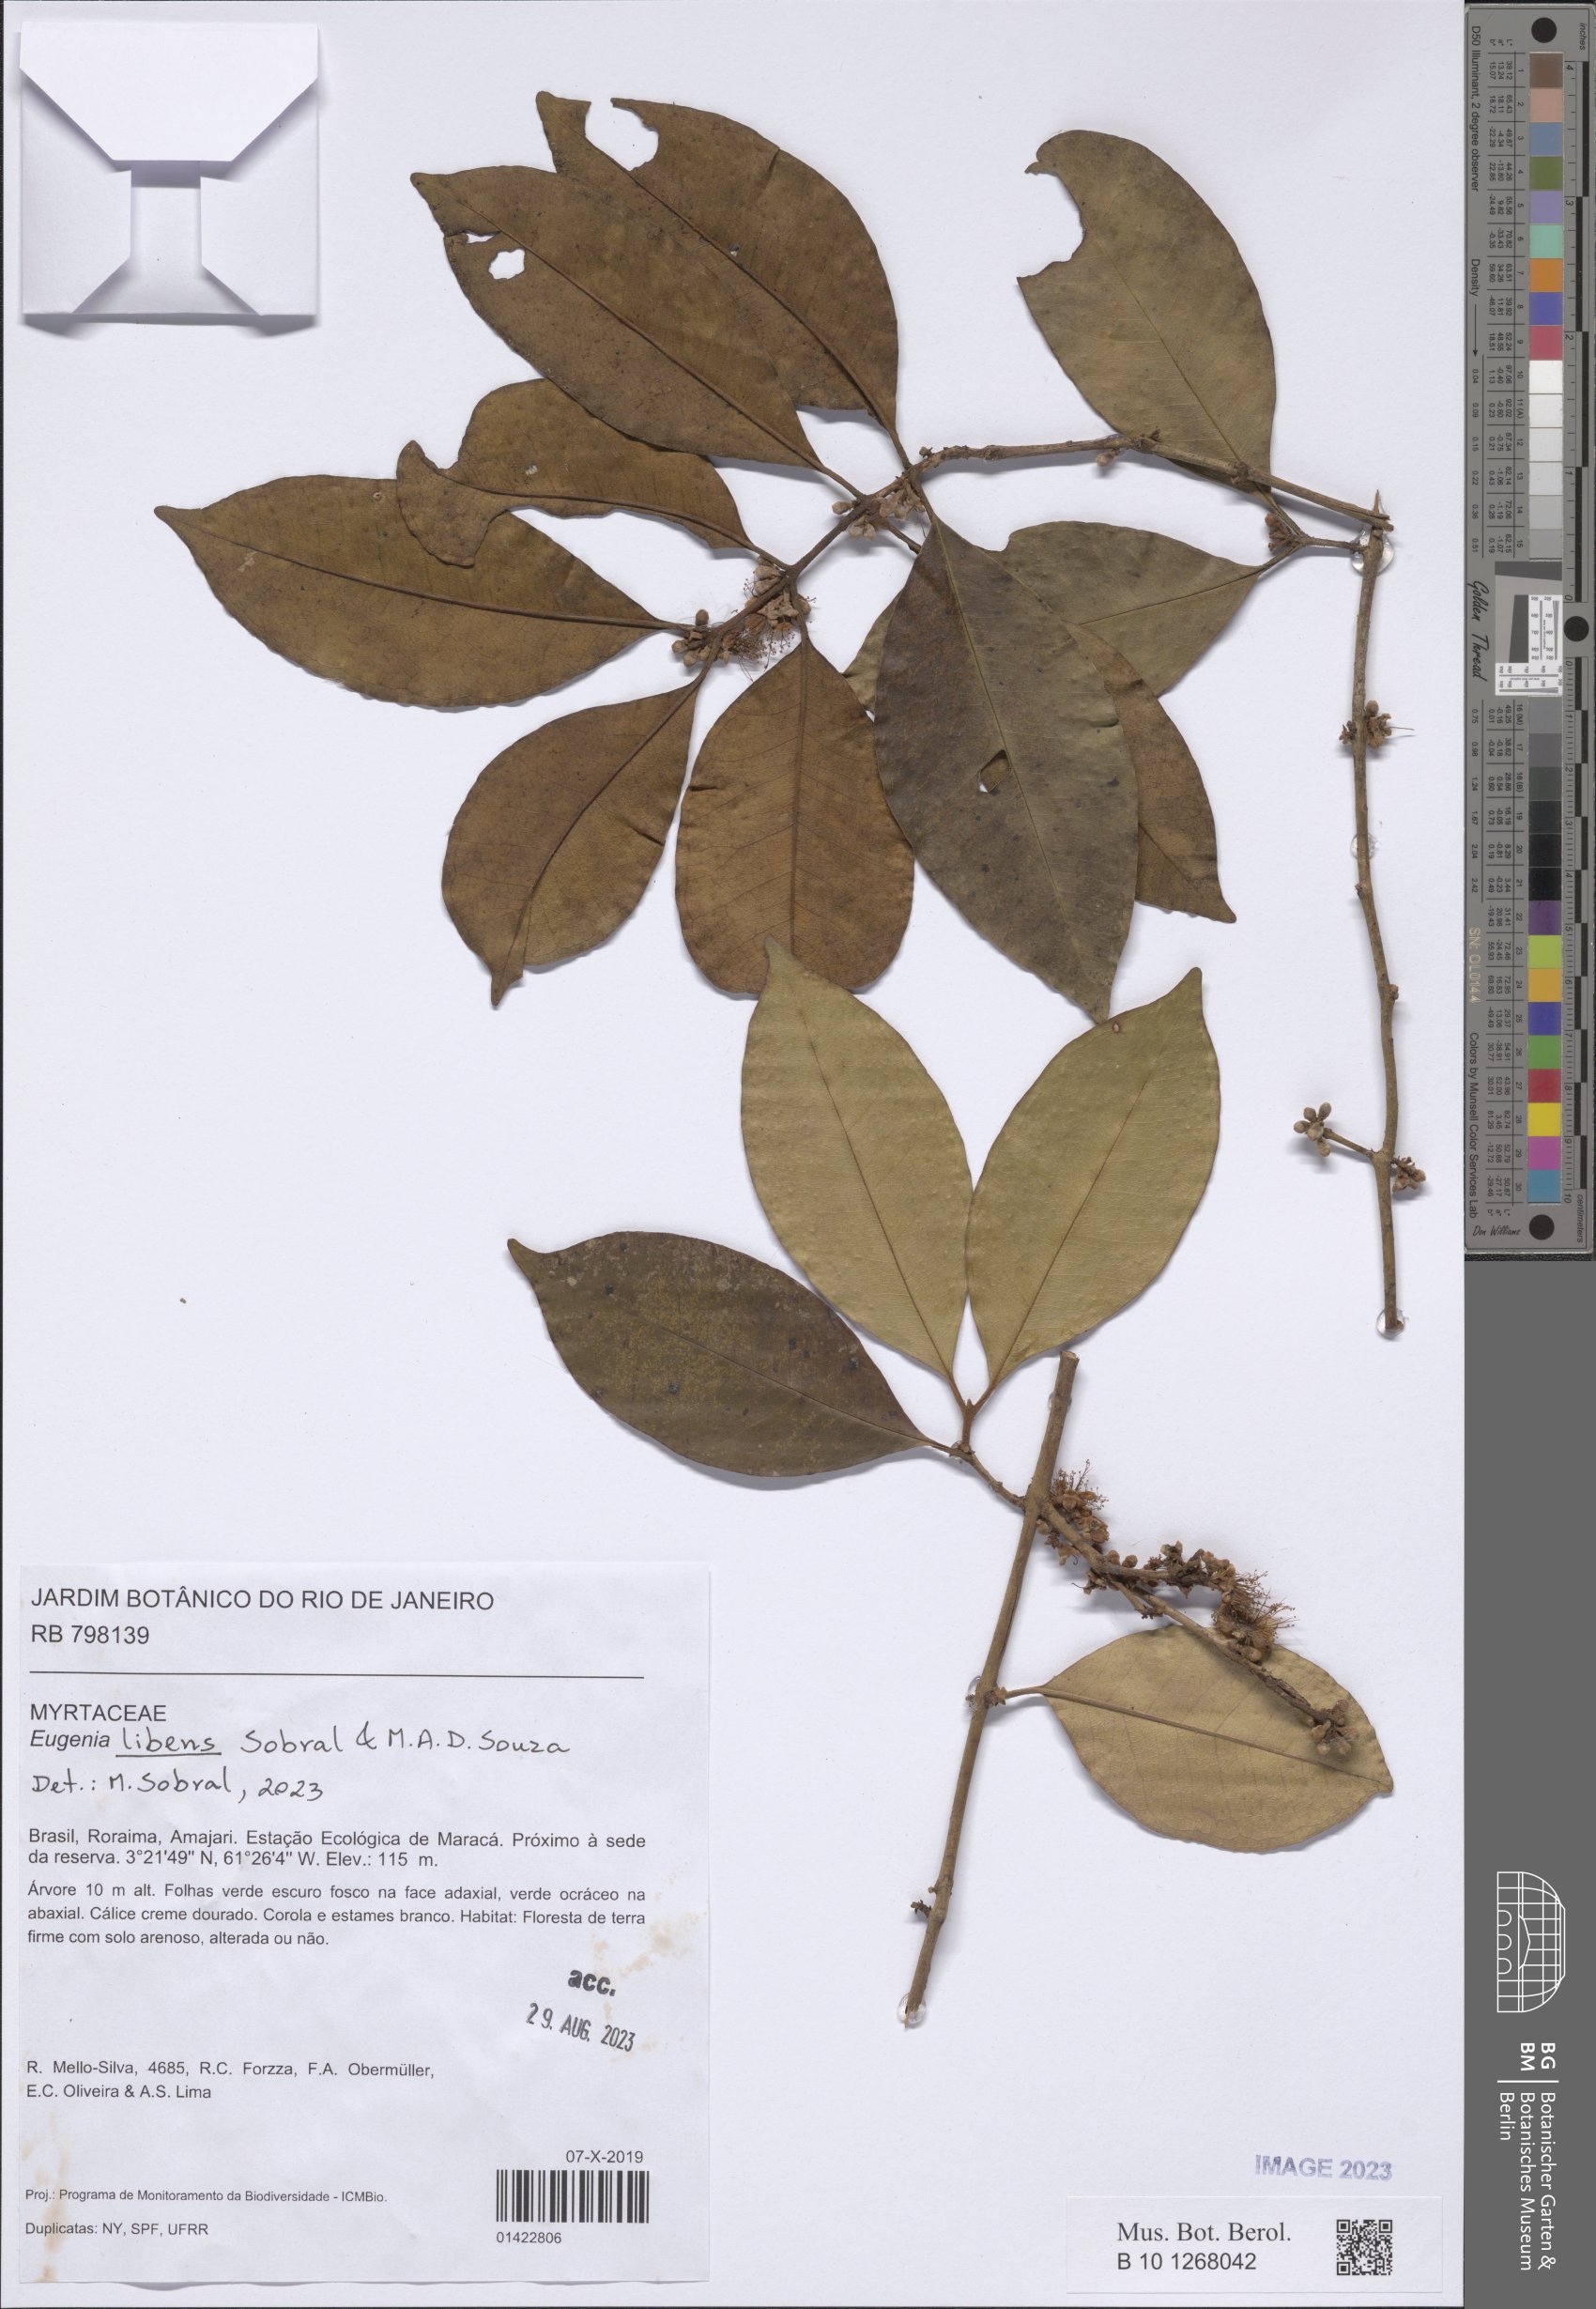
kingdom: Plantae
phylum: Tracheophyta
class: Magnoliopsida
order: Myrtales
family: Myrtaceae
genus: Eugenia
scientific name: Eugenia libens
